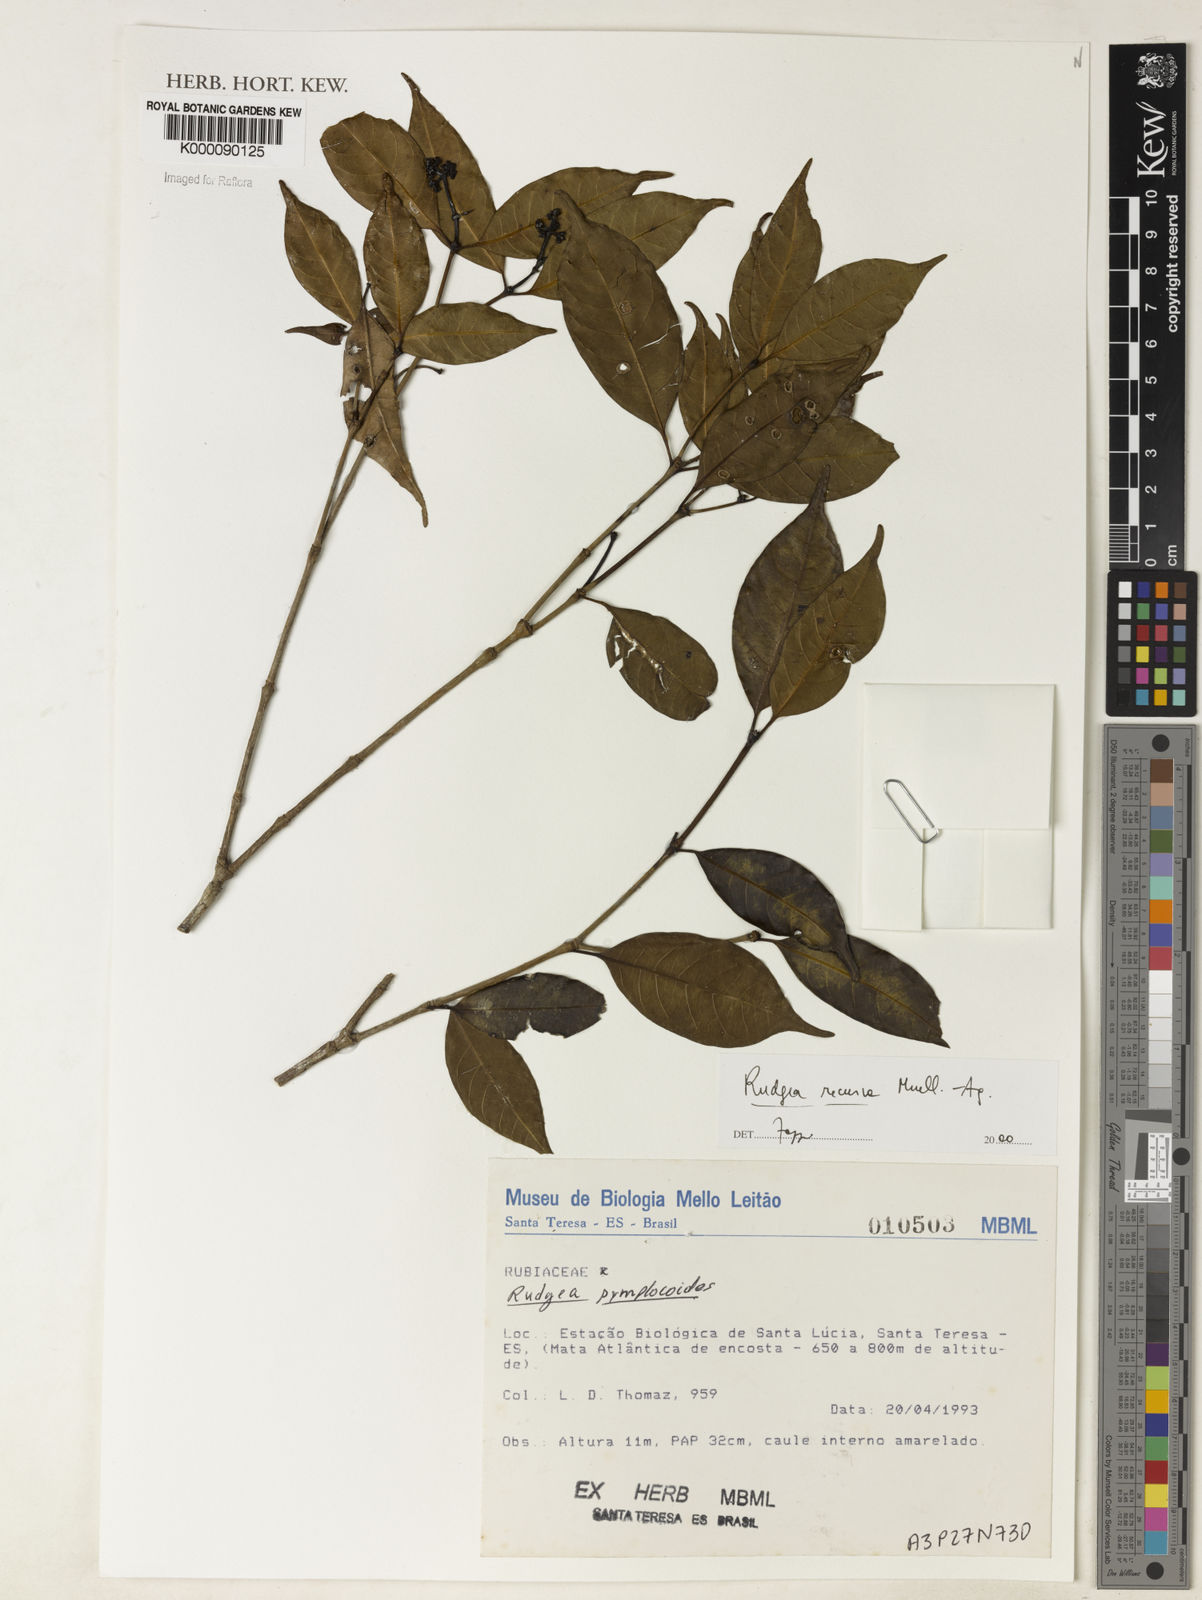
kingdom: Plantae
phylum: Tracheophyta
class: Magnoliopsida
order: Gentianales
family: Rubiaceae
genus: Rudgea
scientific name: Rudgea recurva
